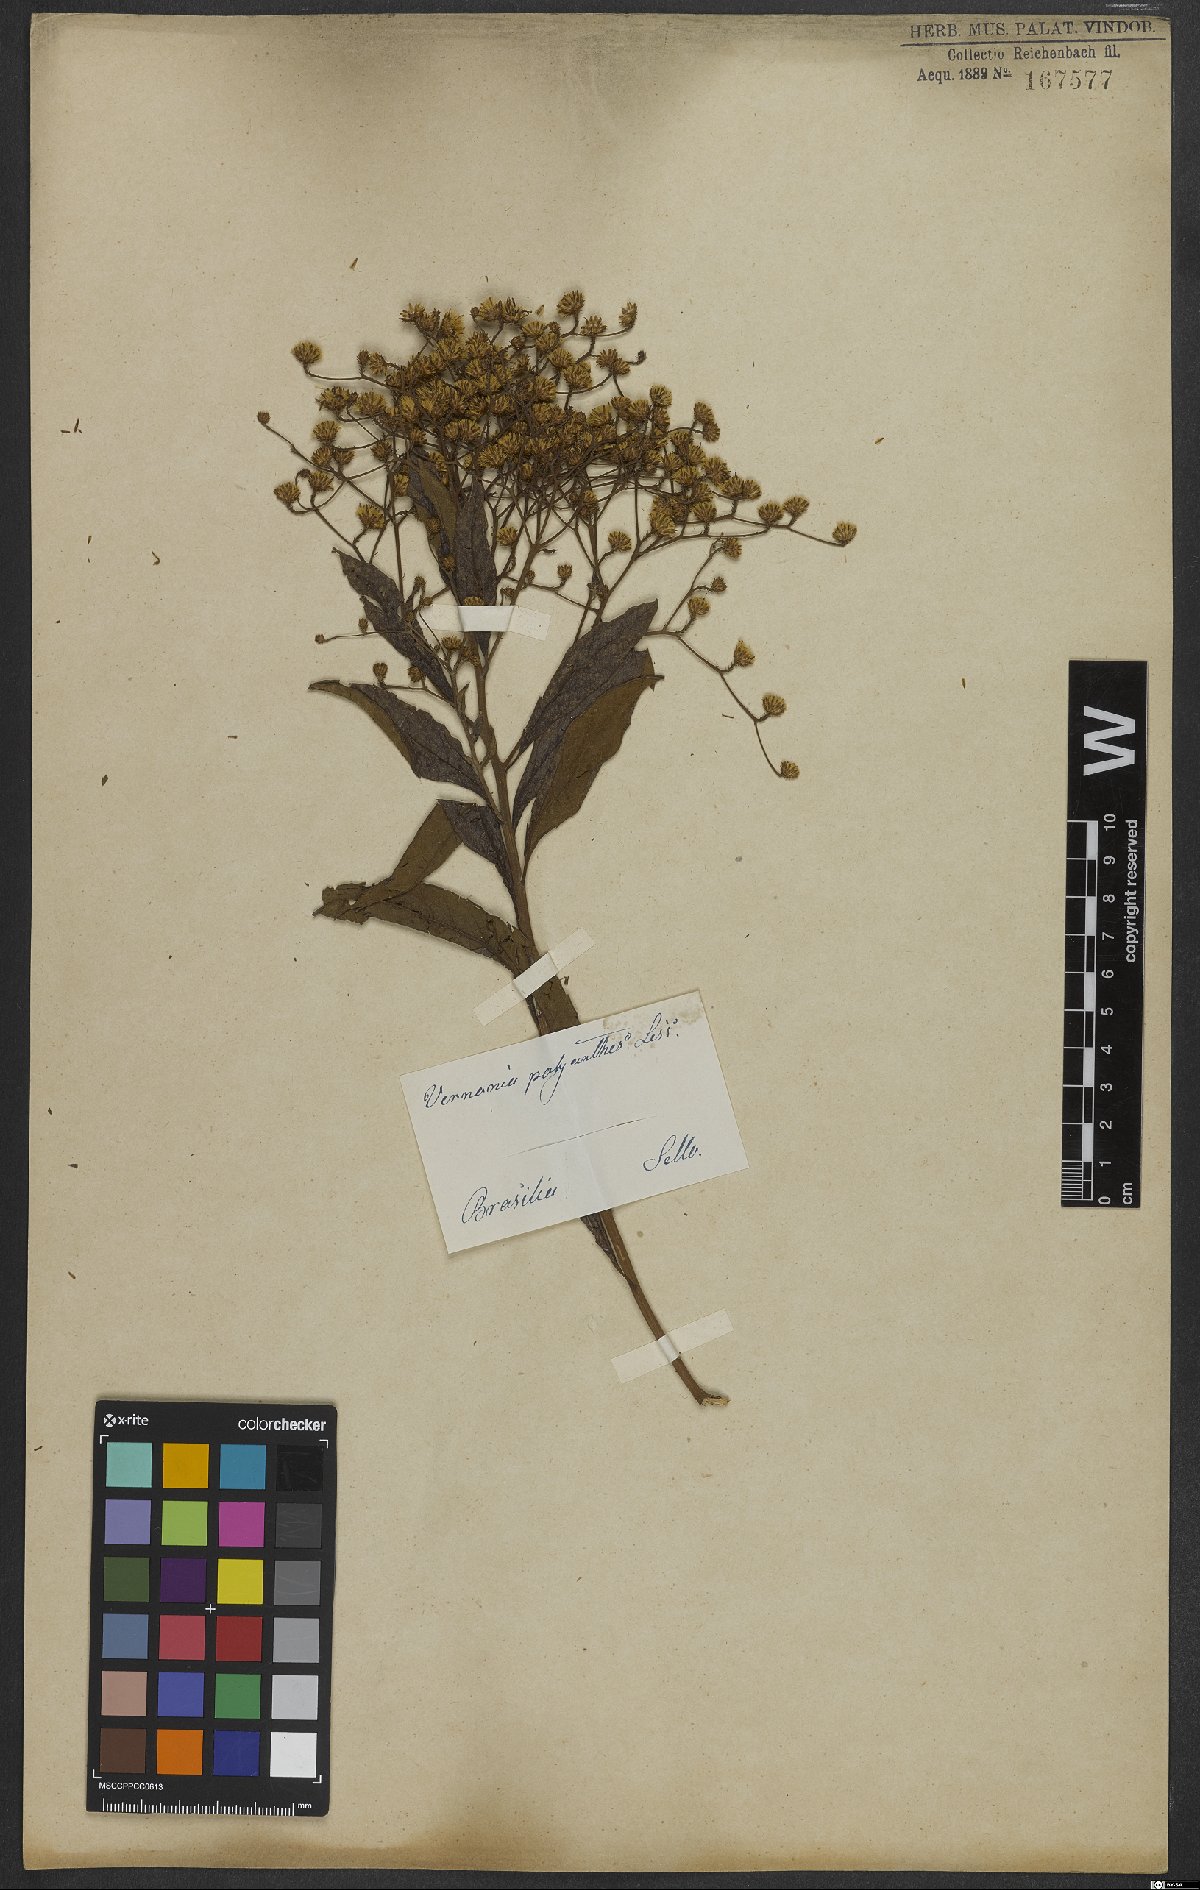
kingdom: Plantae
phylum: Tracheophyta
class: Magnoliopsida
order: Asterales
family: Asteraceae
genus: Vernonanthura
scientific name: Vernonanthura polyanthes
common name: Tree aster
